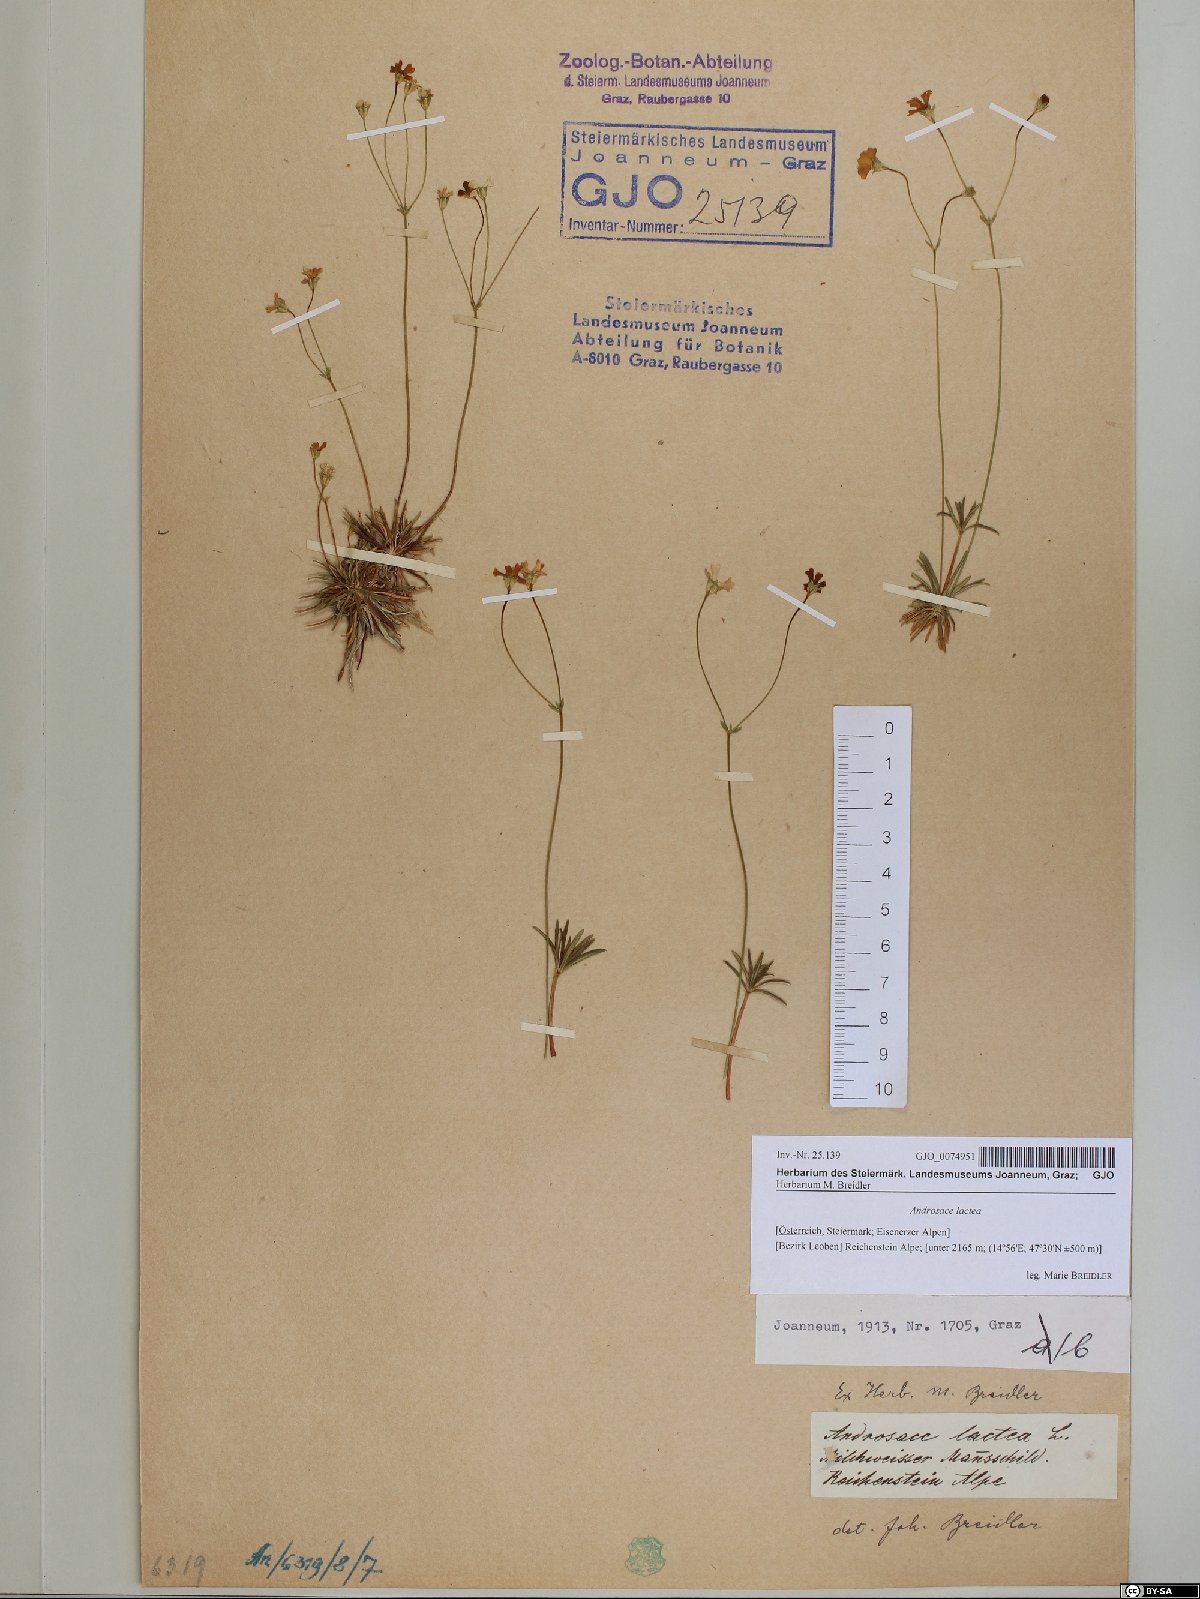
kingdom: Plantae
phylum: Tracheophyta
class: Magnoliopsida
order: Ericales
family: Primulaceae
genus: Androsace
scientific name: Androsace lactea
